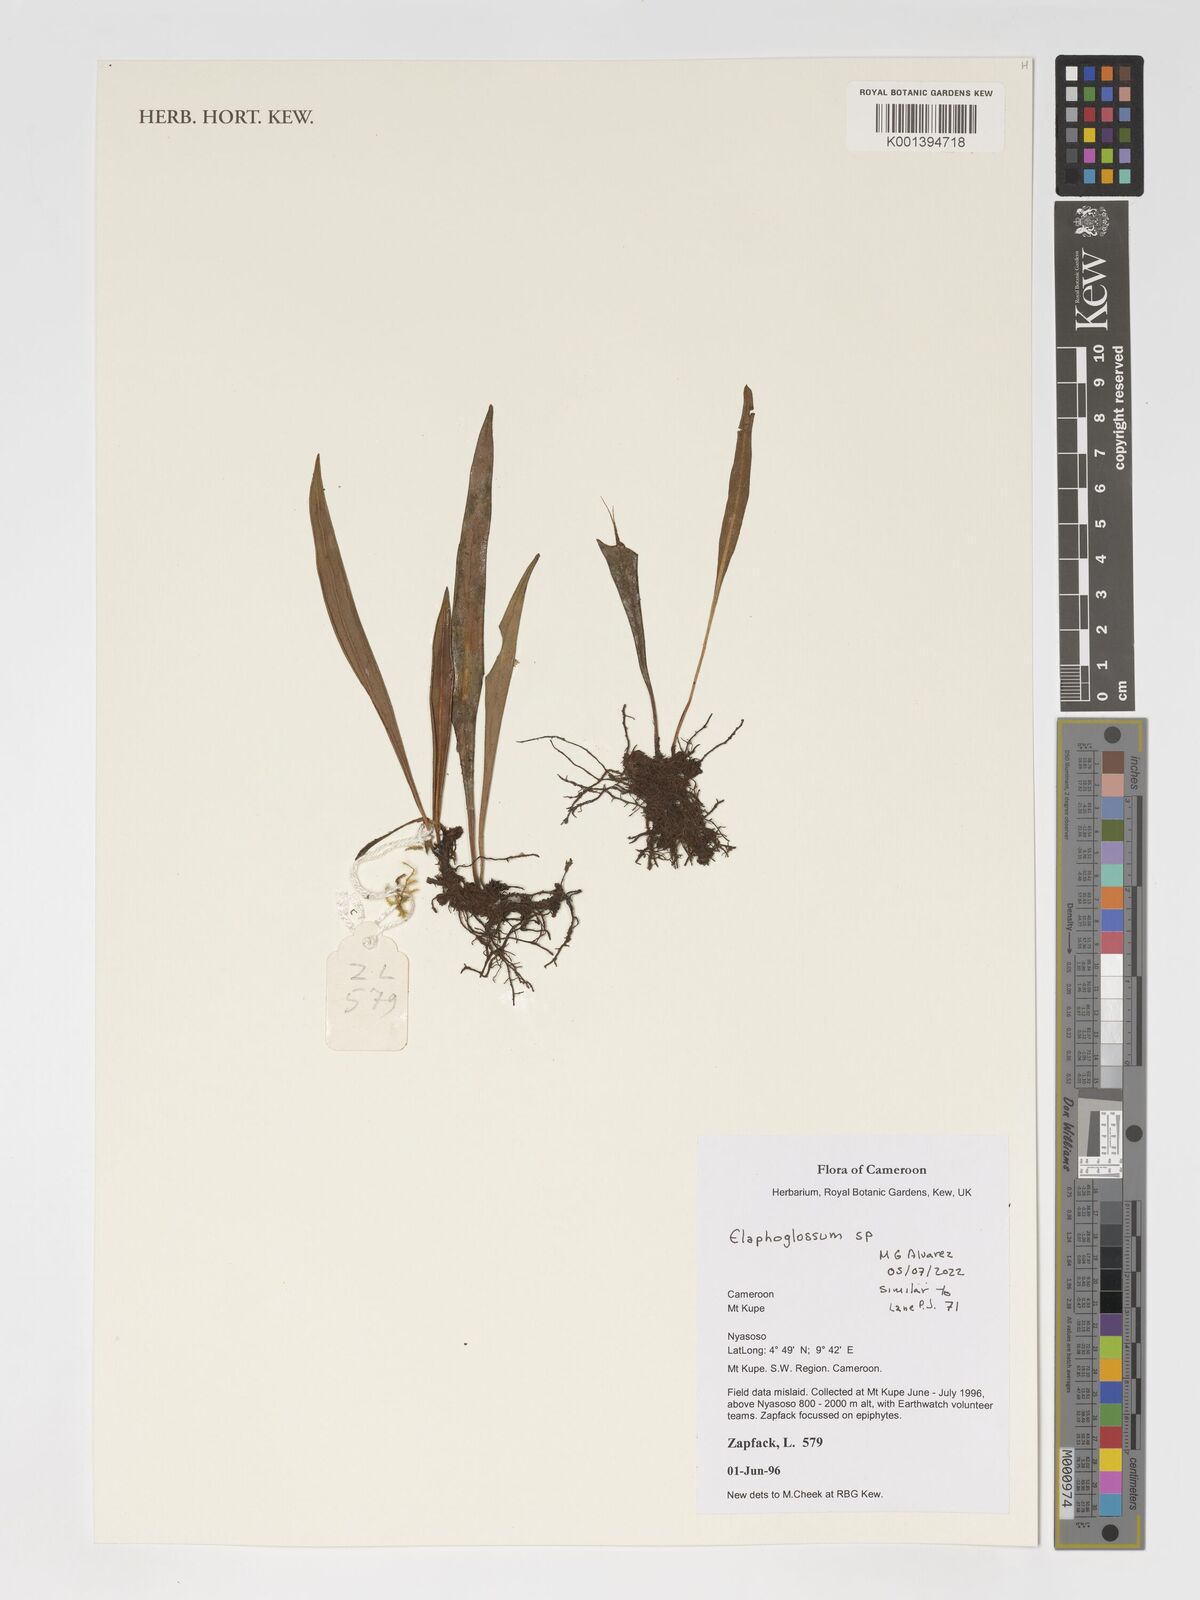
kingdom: Plantae
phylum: Tracheophyta
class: Polypodiopsida
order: Polypodiales
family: Dryopteridaceae
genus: Elaphoglossum
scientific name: Elaphoglossum
